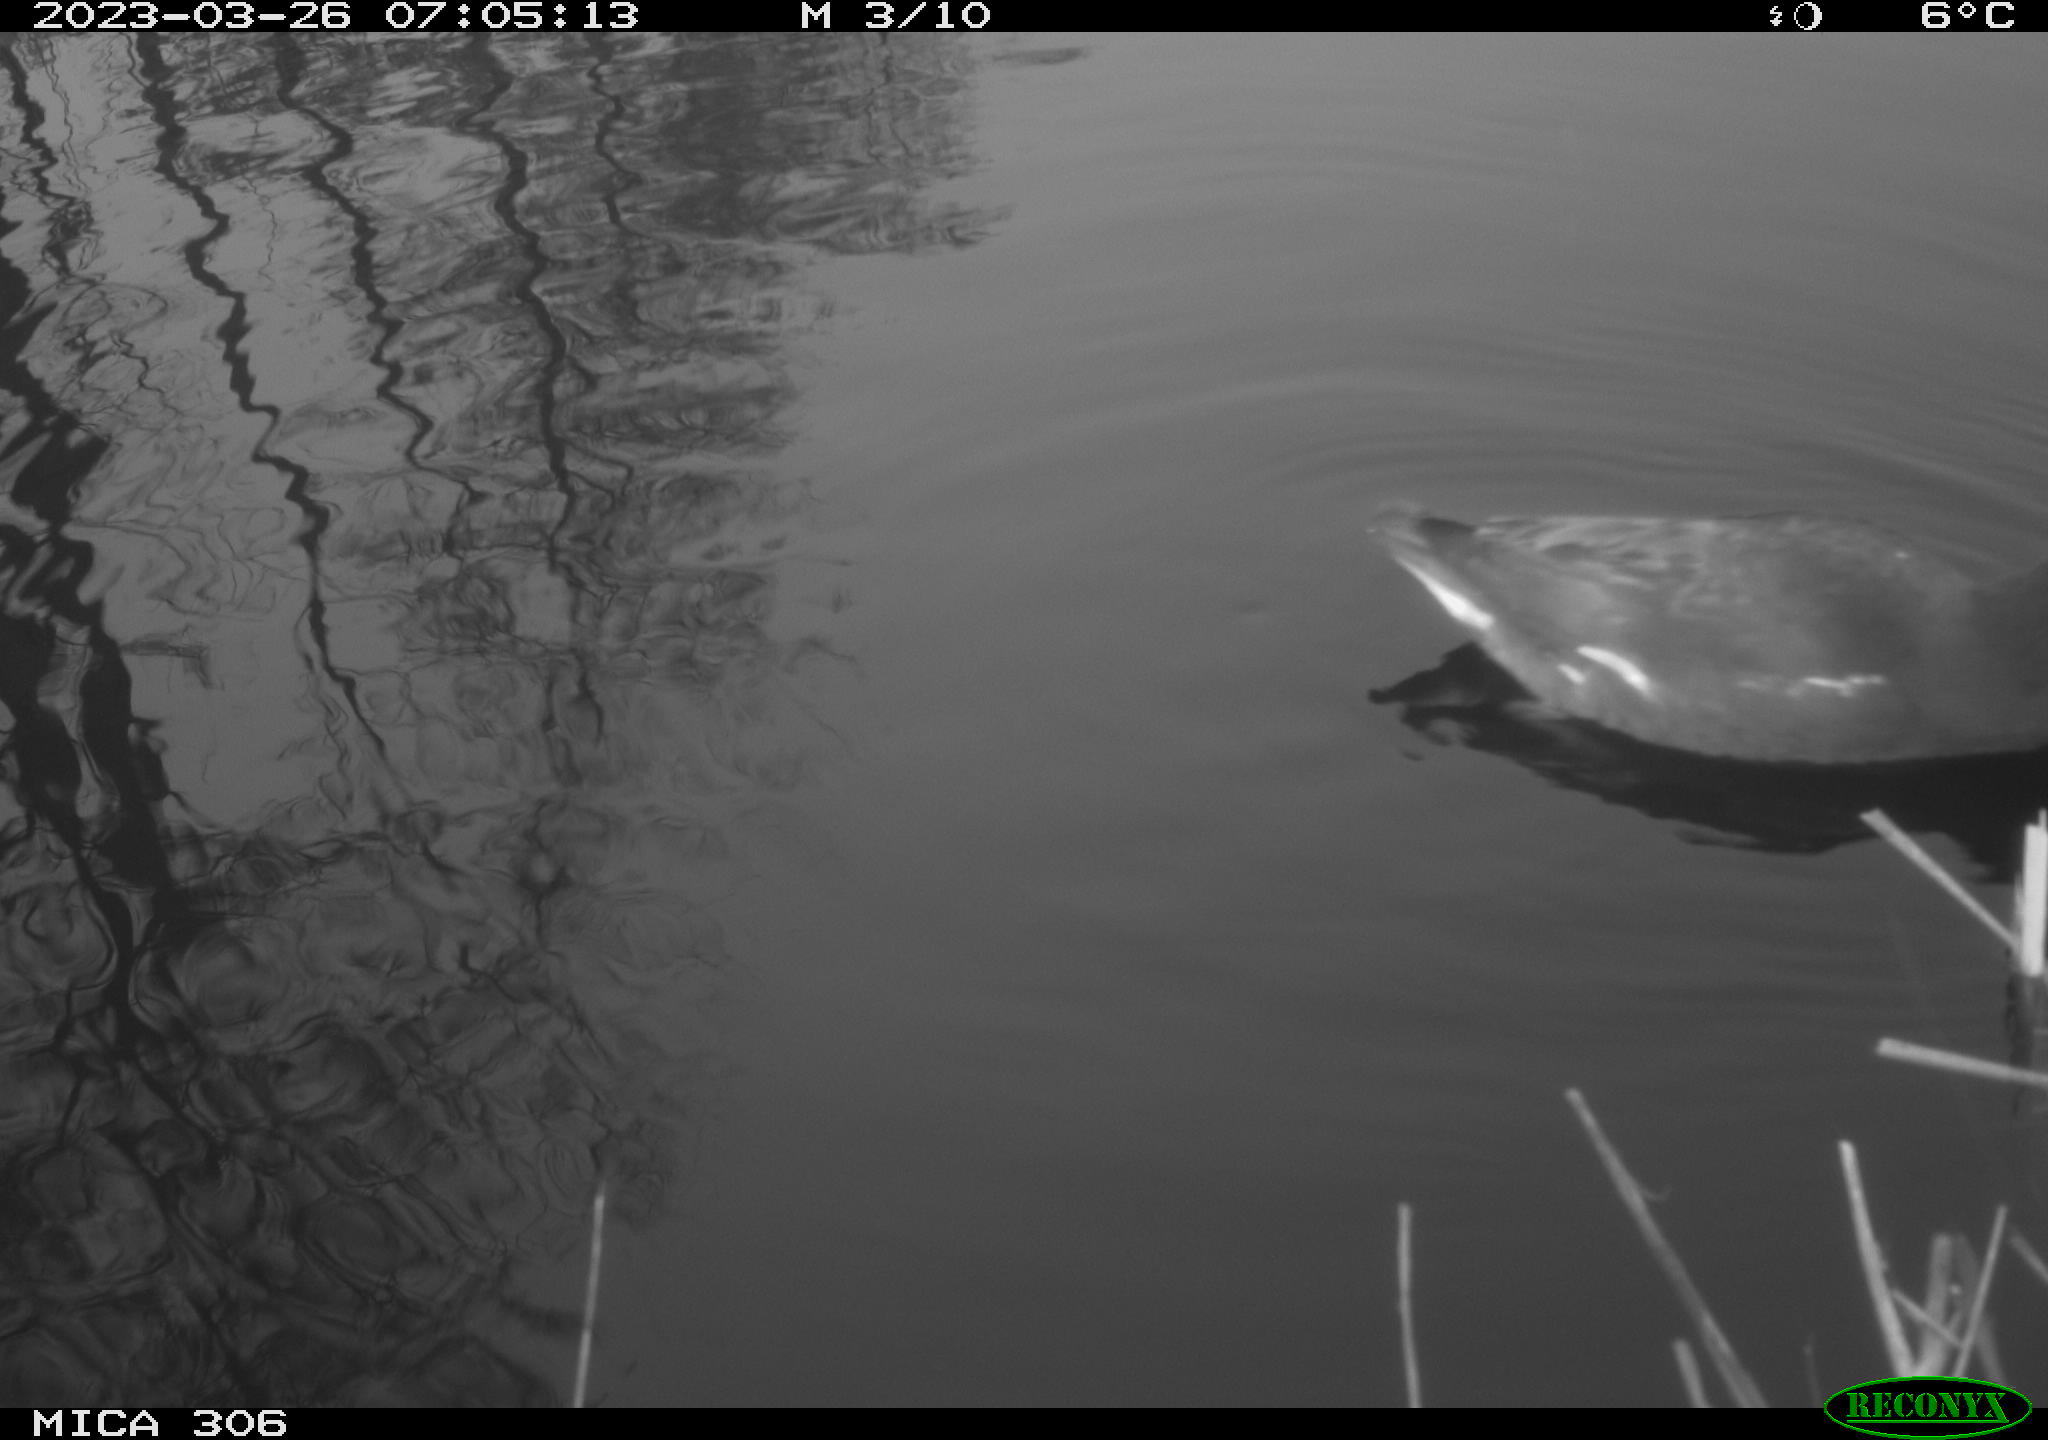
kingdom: Animalia
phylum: Chordata
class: Aves
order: Gruiformes
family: Rallidae
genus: Gallinula
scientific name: Gallinula chloropus
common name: Common moorhen
